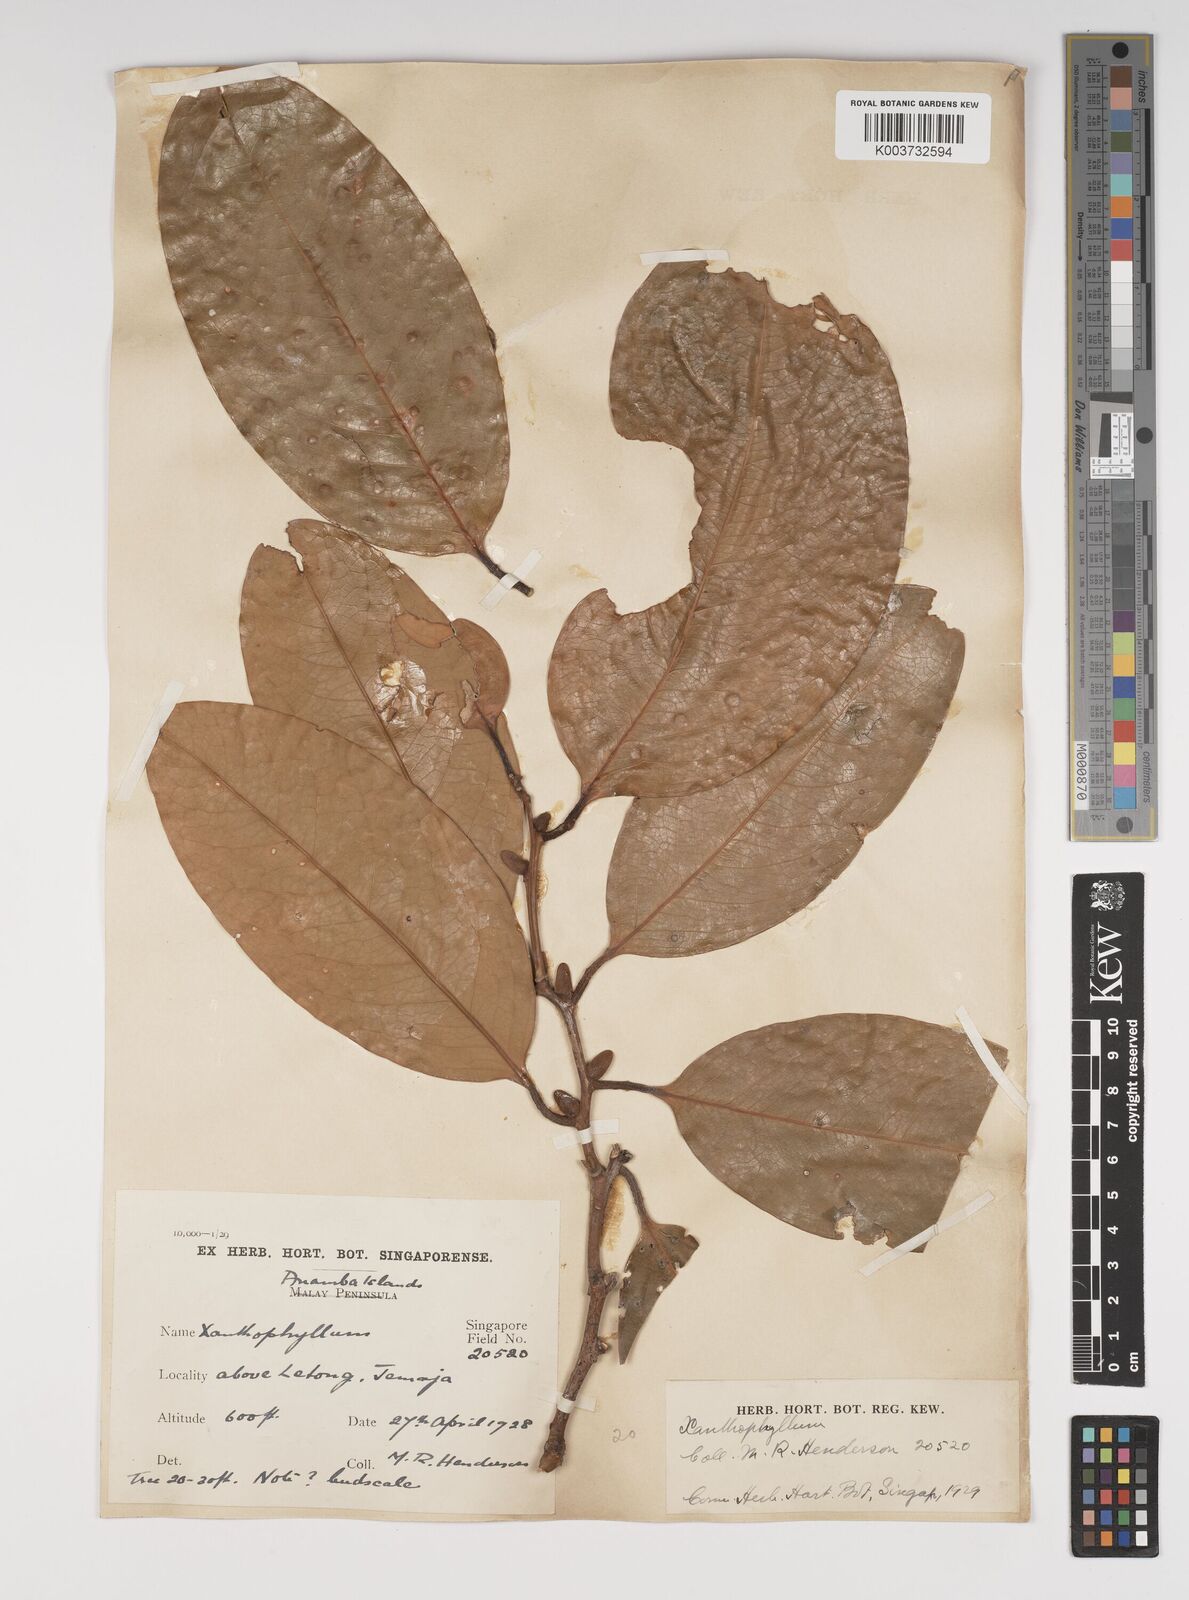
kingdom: Plantae
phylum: Tracheophyta
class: Magnoliopsida
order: Fabales
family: Polygalaceae
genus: Xanthophyllum
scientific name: Xanthophyllum
